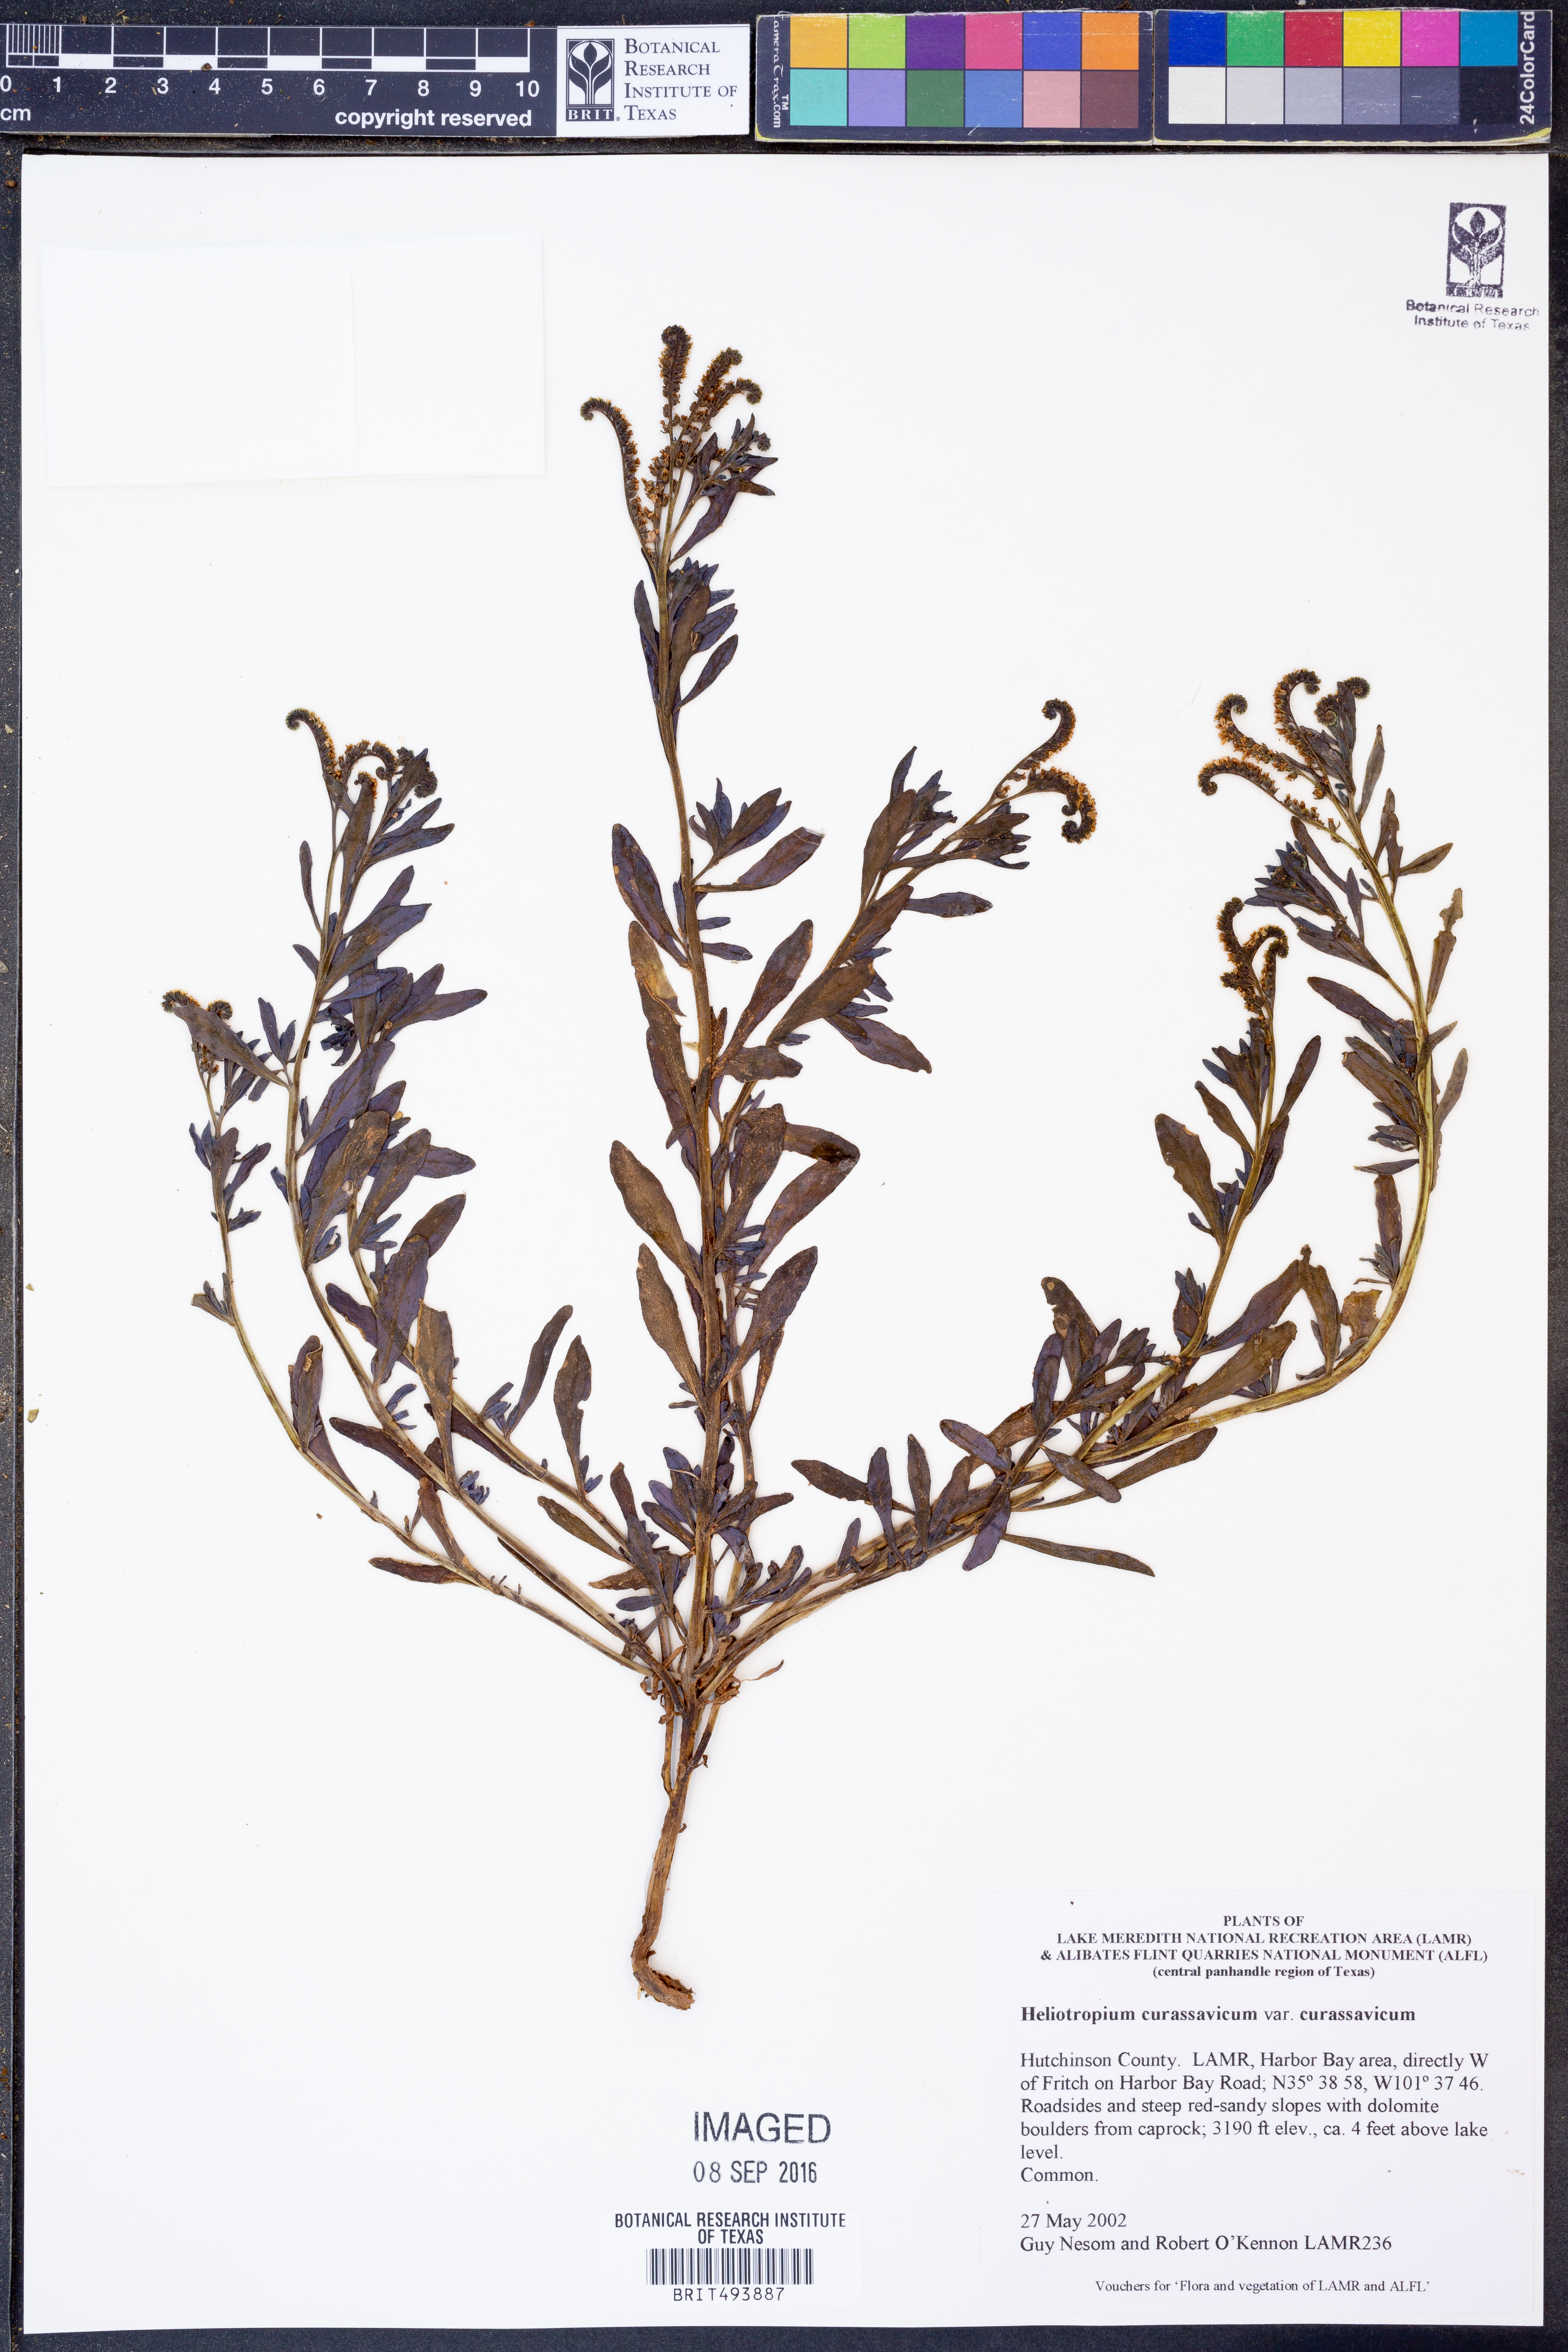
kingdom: Plantae
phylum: Tracheophyta
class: Magnoliopsida
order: Boraginales
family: Heliotropiaceae
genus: Heliotropium
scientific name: Heliotropium curassavicum
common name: Seaside heliotrope
